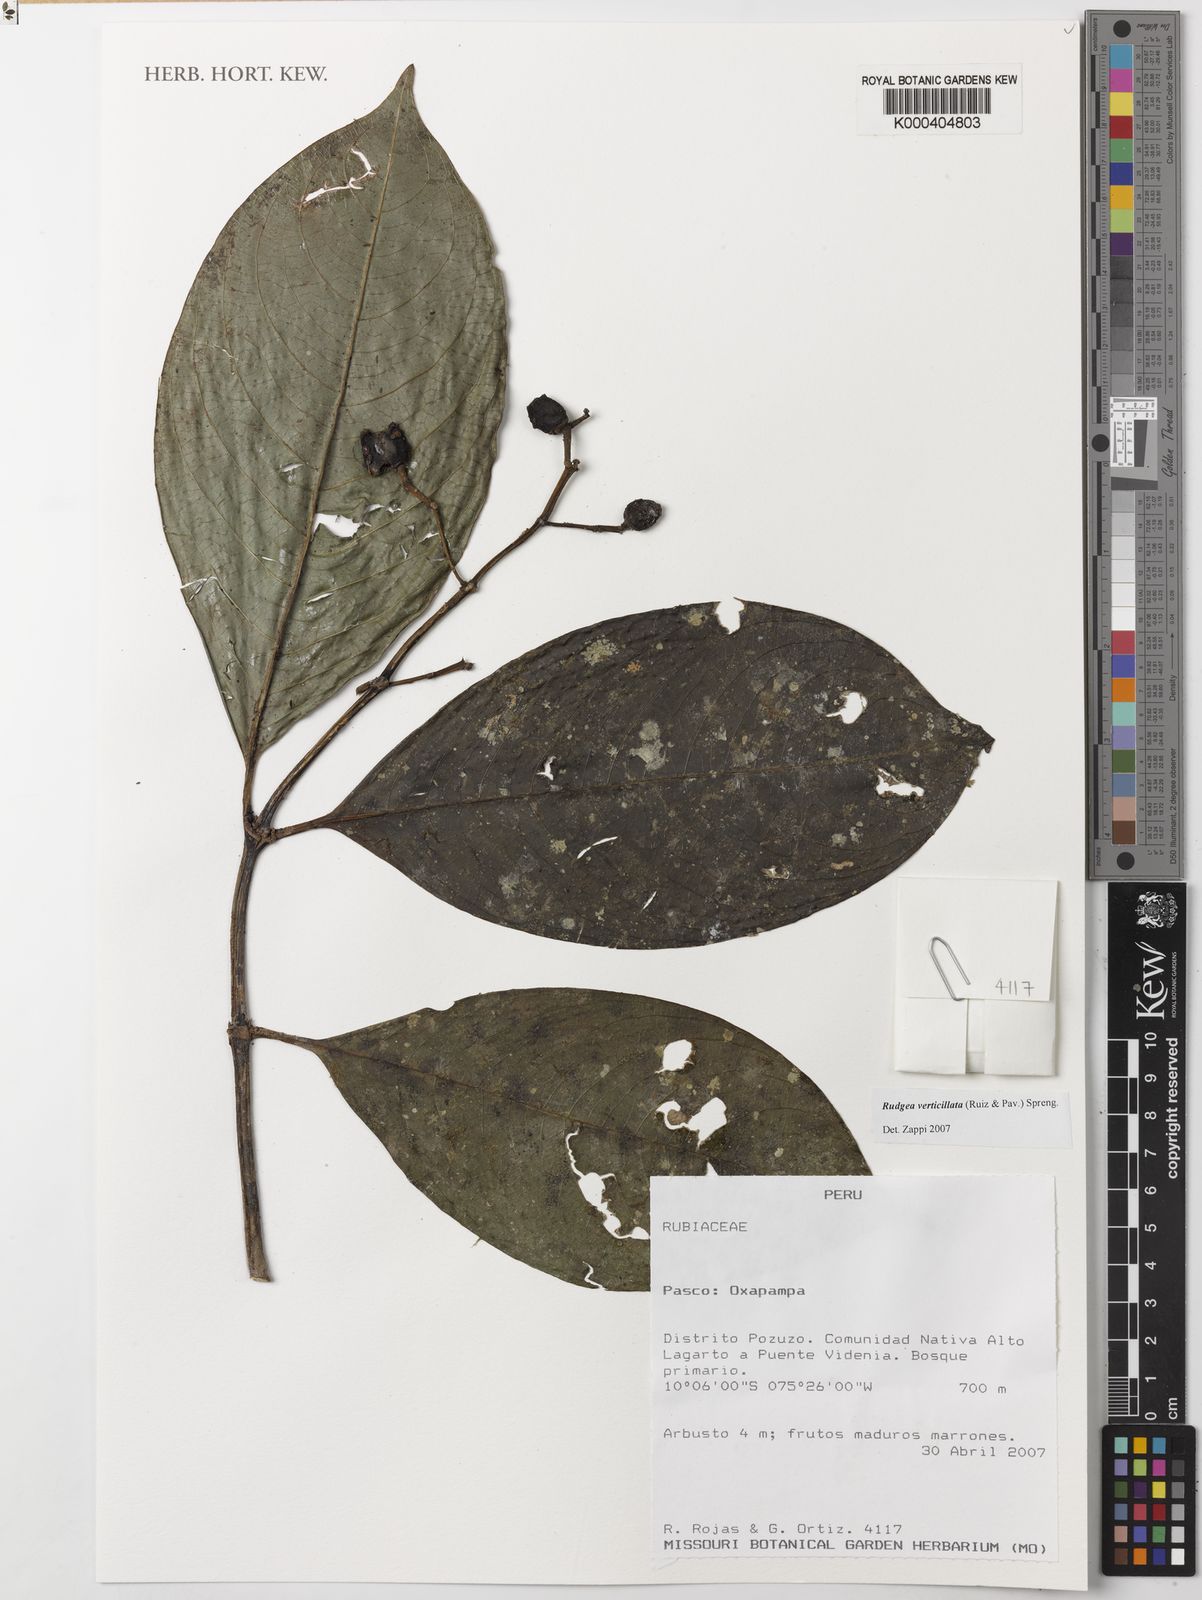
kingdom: Plantae
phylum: Tracheophyta
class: Magnoliopsida
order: Gentianales
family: Rubiaceae
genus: Rudgea
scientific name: Rudgea verticillata
